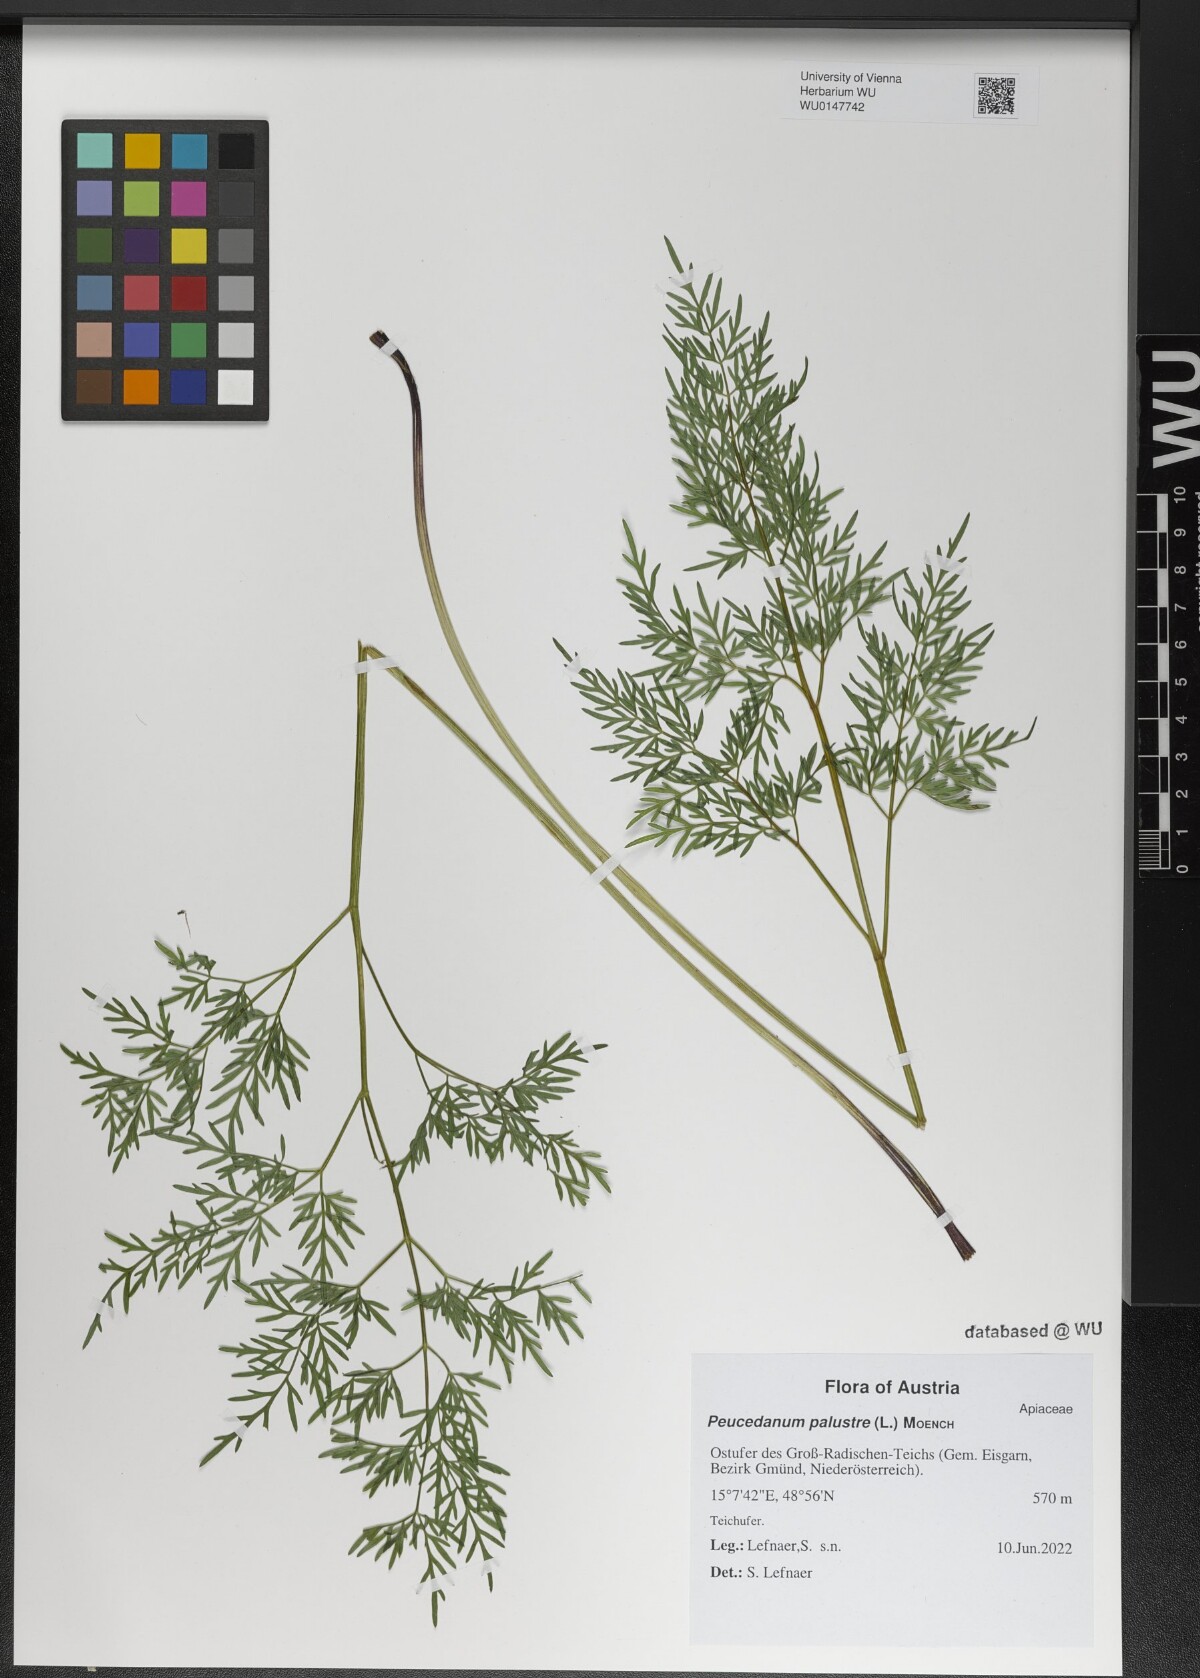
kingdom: Plantae
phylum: Tracheophyta
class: Magnoliopsida
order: Apiales
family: Apiaceae
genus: Thysselinum
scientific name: Thysselinum palustre
